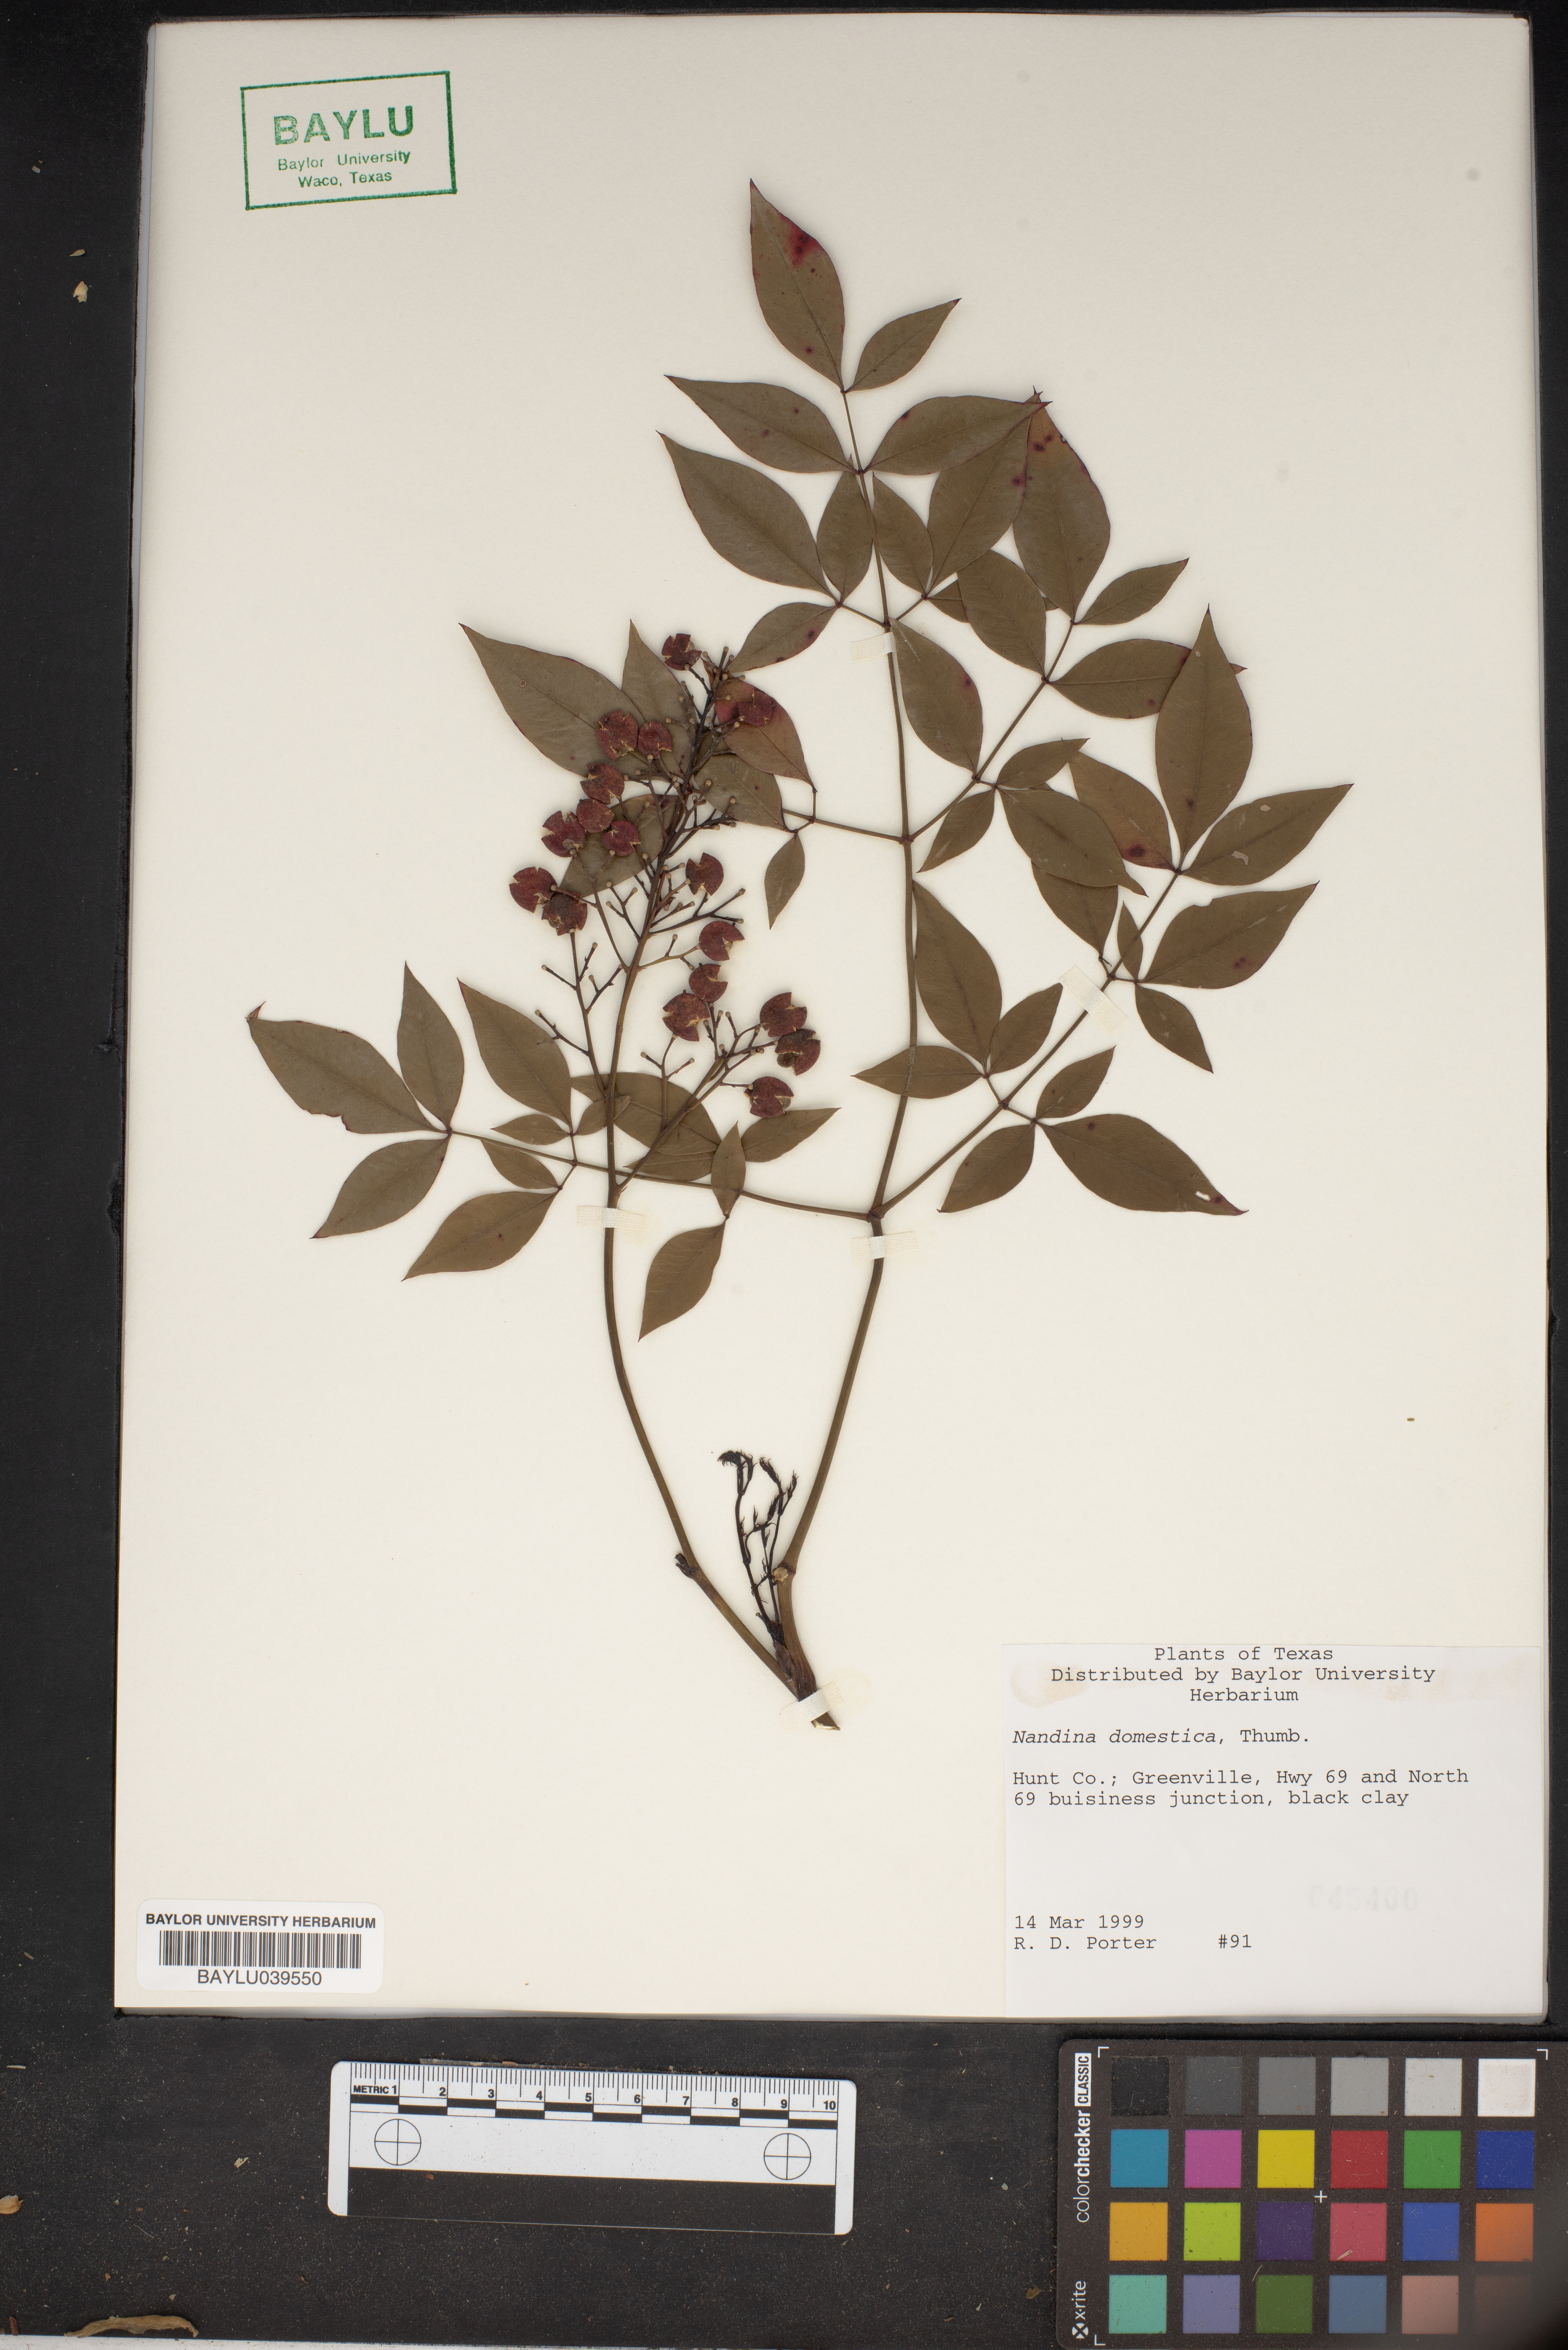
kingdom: Plantae
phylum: Tracheophyta
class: Magnoliopsida
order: Ranunculales
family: Berberidaceae
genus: Nandina
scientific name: Nandina domestica
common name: Sacred bamboo
